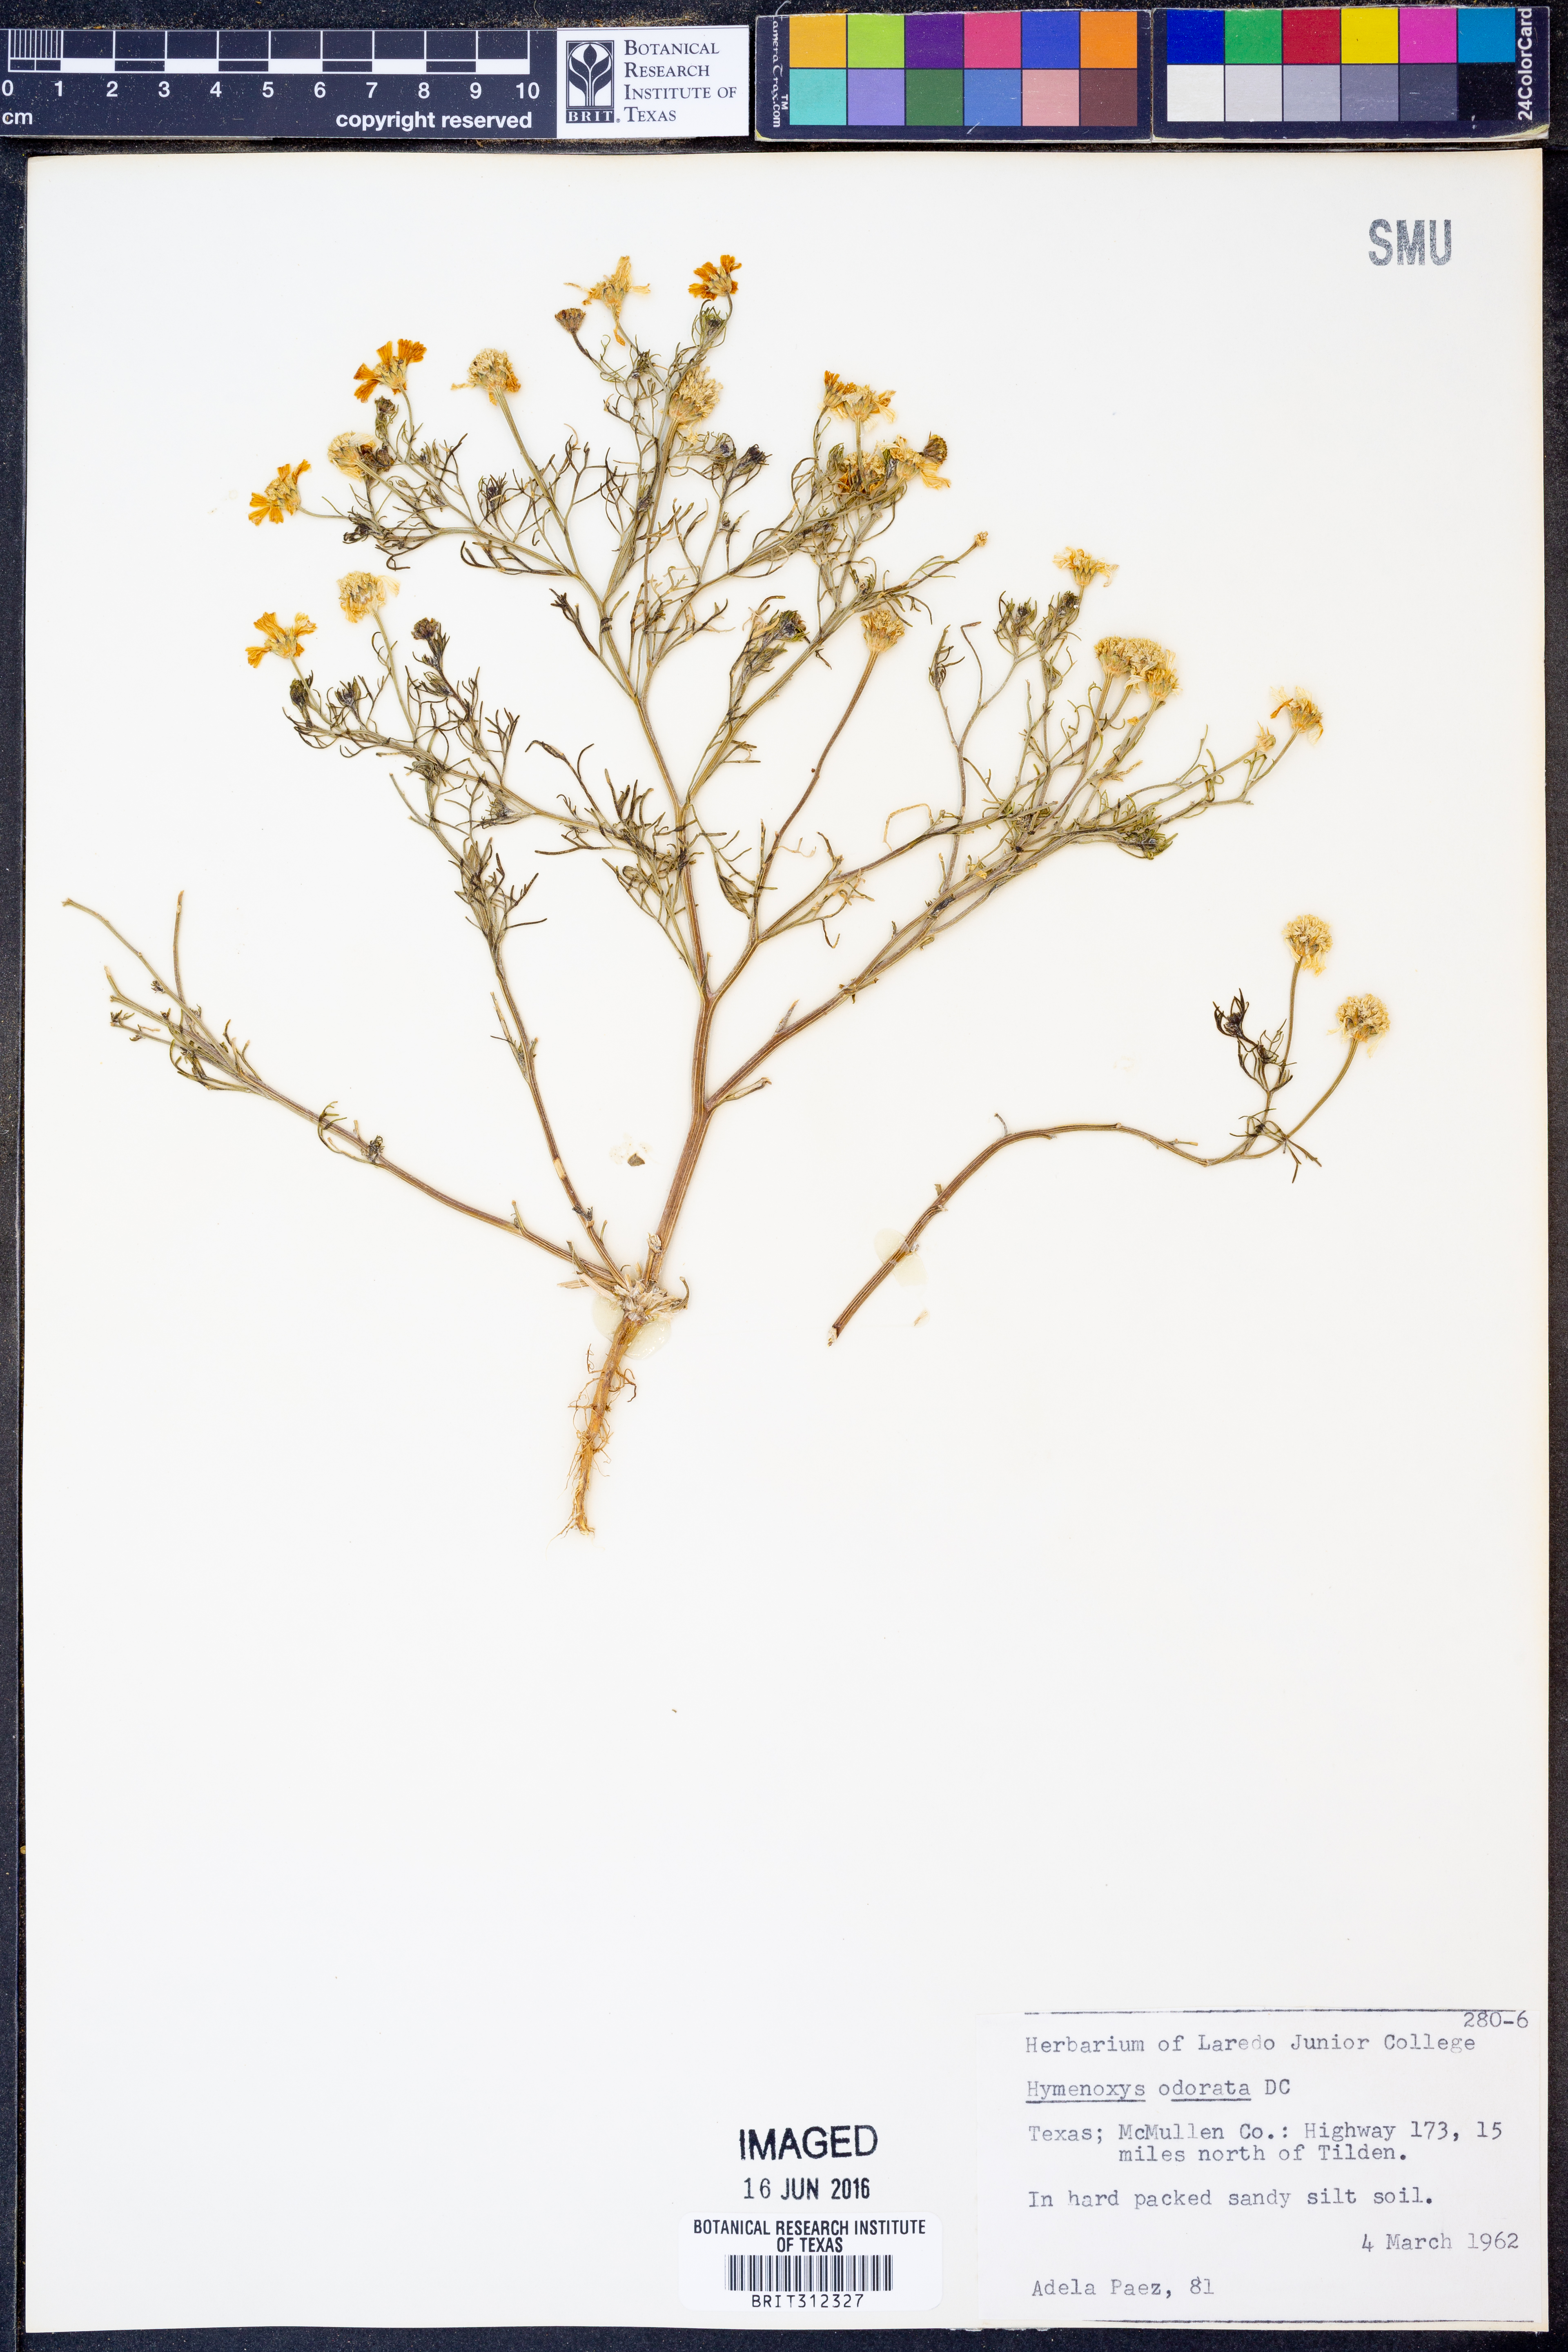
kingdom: Plantae
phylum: Tracheophyta
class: Magnoliopsida
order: Asterales
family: Asteraceae
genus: Hymenoxys
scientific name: Hymenoxys odorata
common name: Bitter rubberweed
